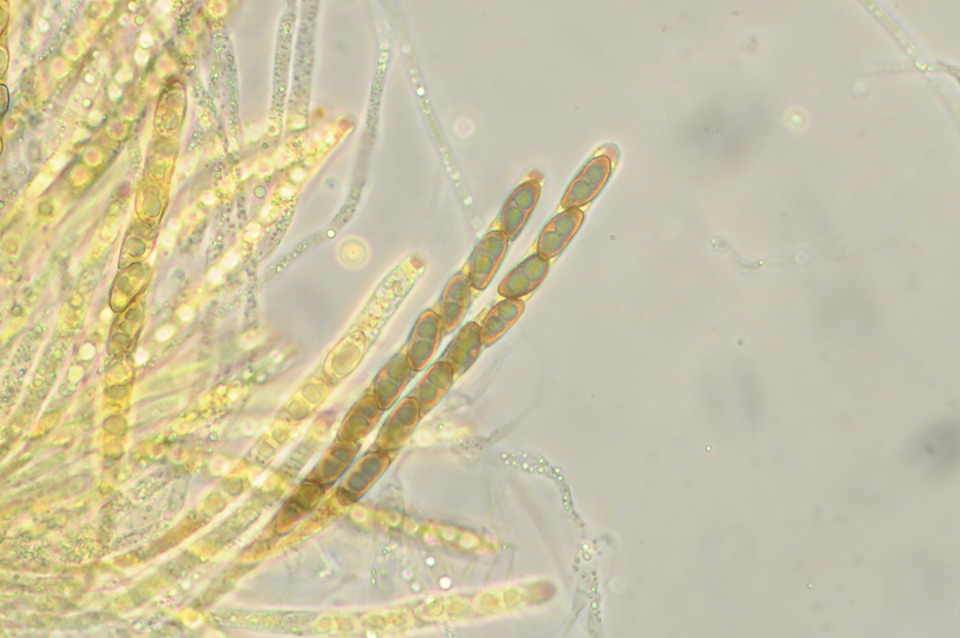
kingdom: Fungi
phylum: Ascomycota
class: Sordariomycetes
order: Xylariales
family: Xylariaceae
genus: Nemania
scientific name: Nemania serpens
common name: almindelig kuldyne
